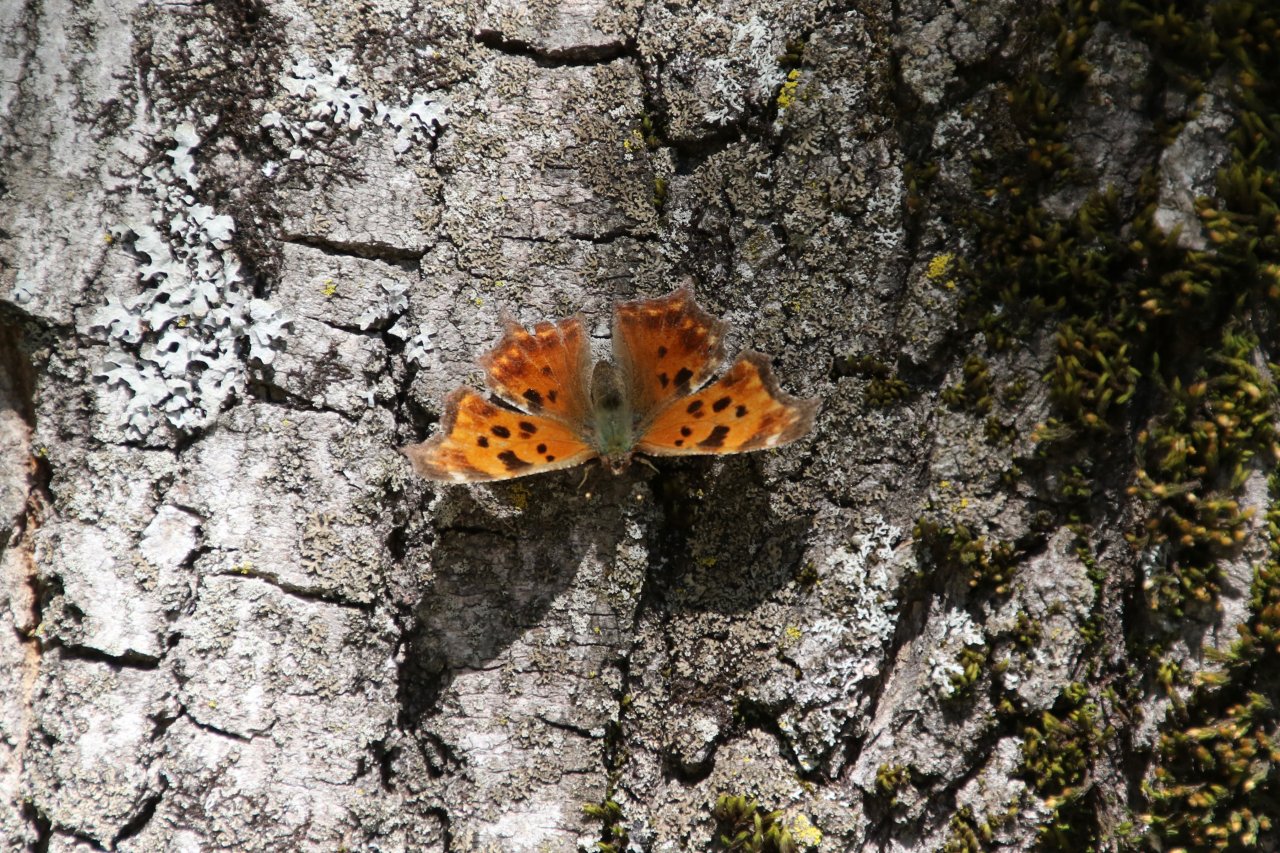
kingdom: Animalia
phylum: Arthropoda
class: Insecta
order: Lepidoptera
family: Nymphalidae
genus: Polygonia
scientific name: Polygonia comma
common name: Eastern Comma
